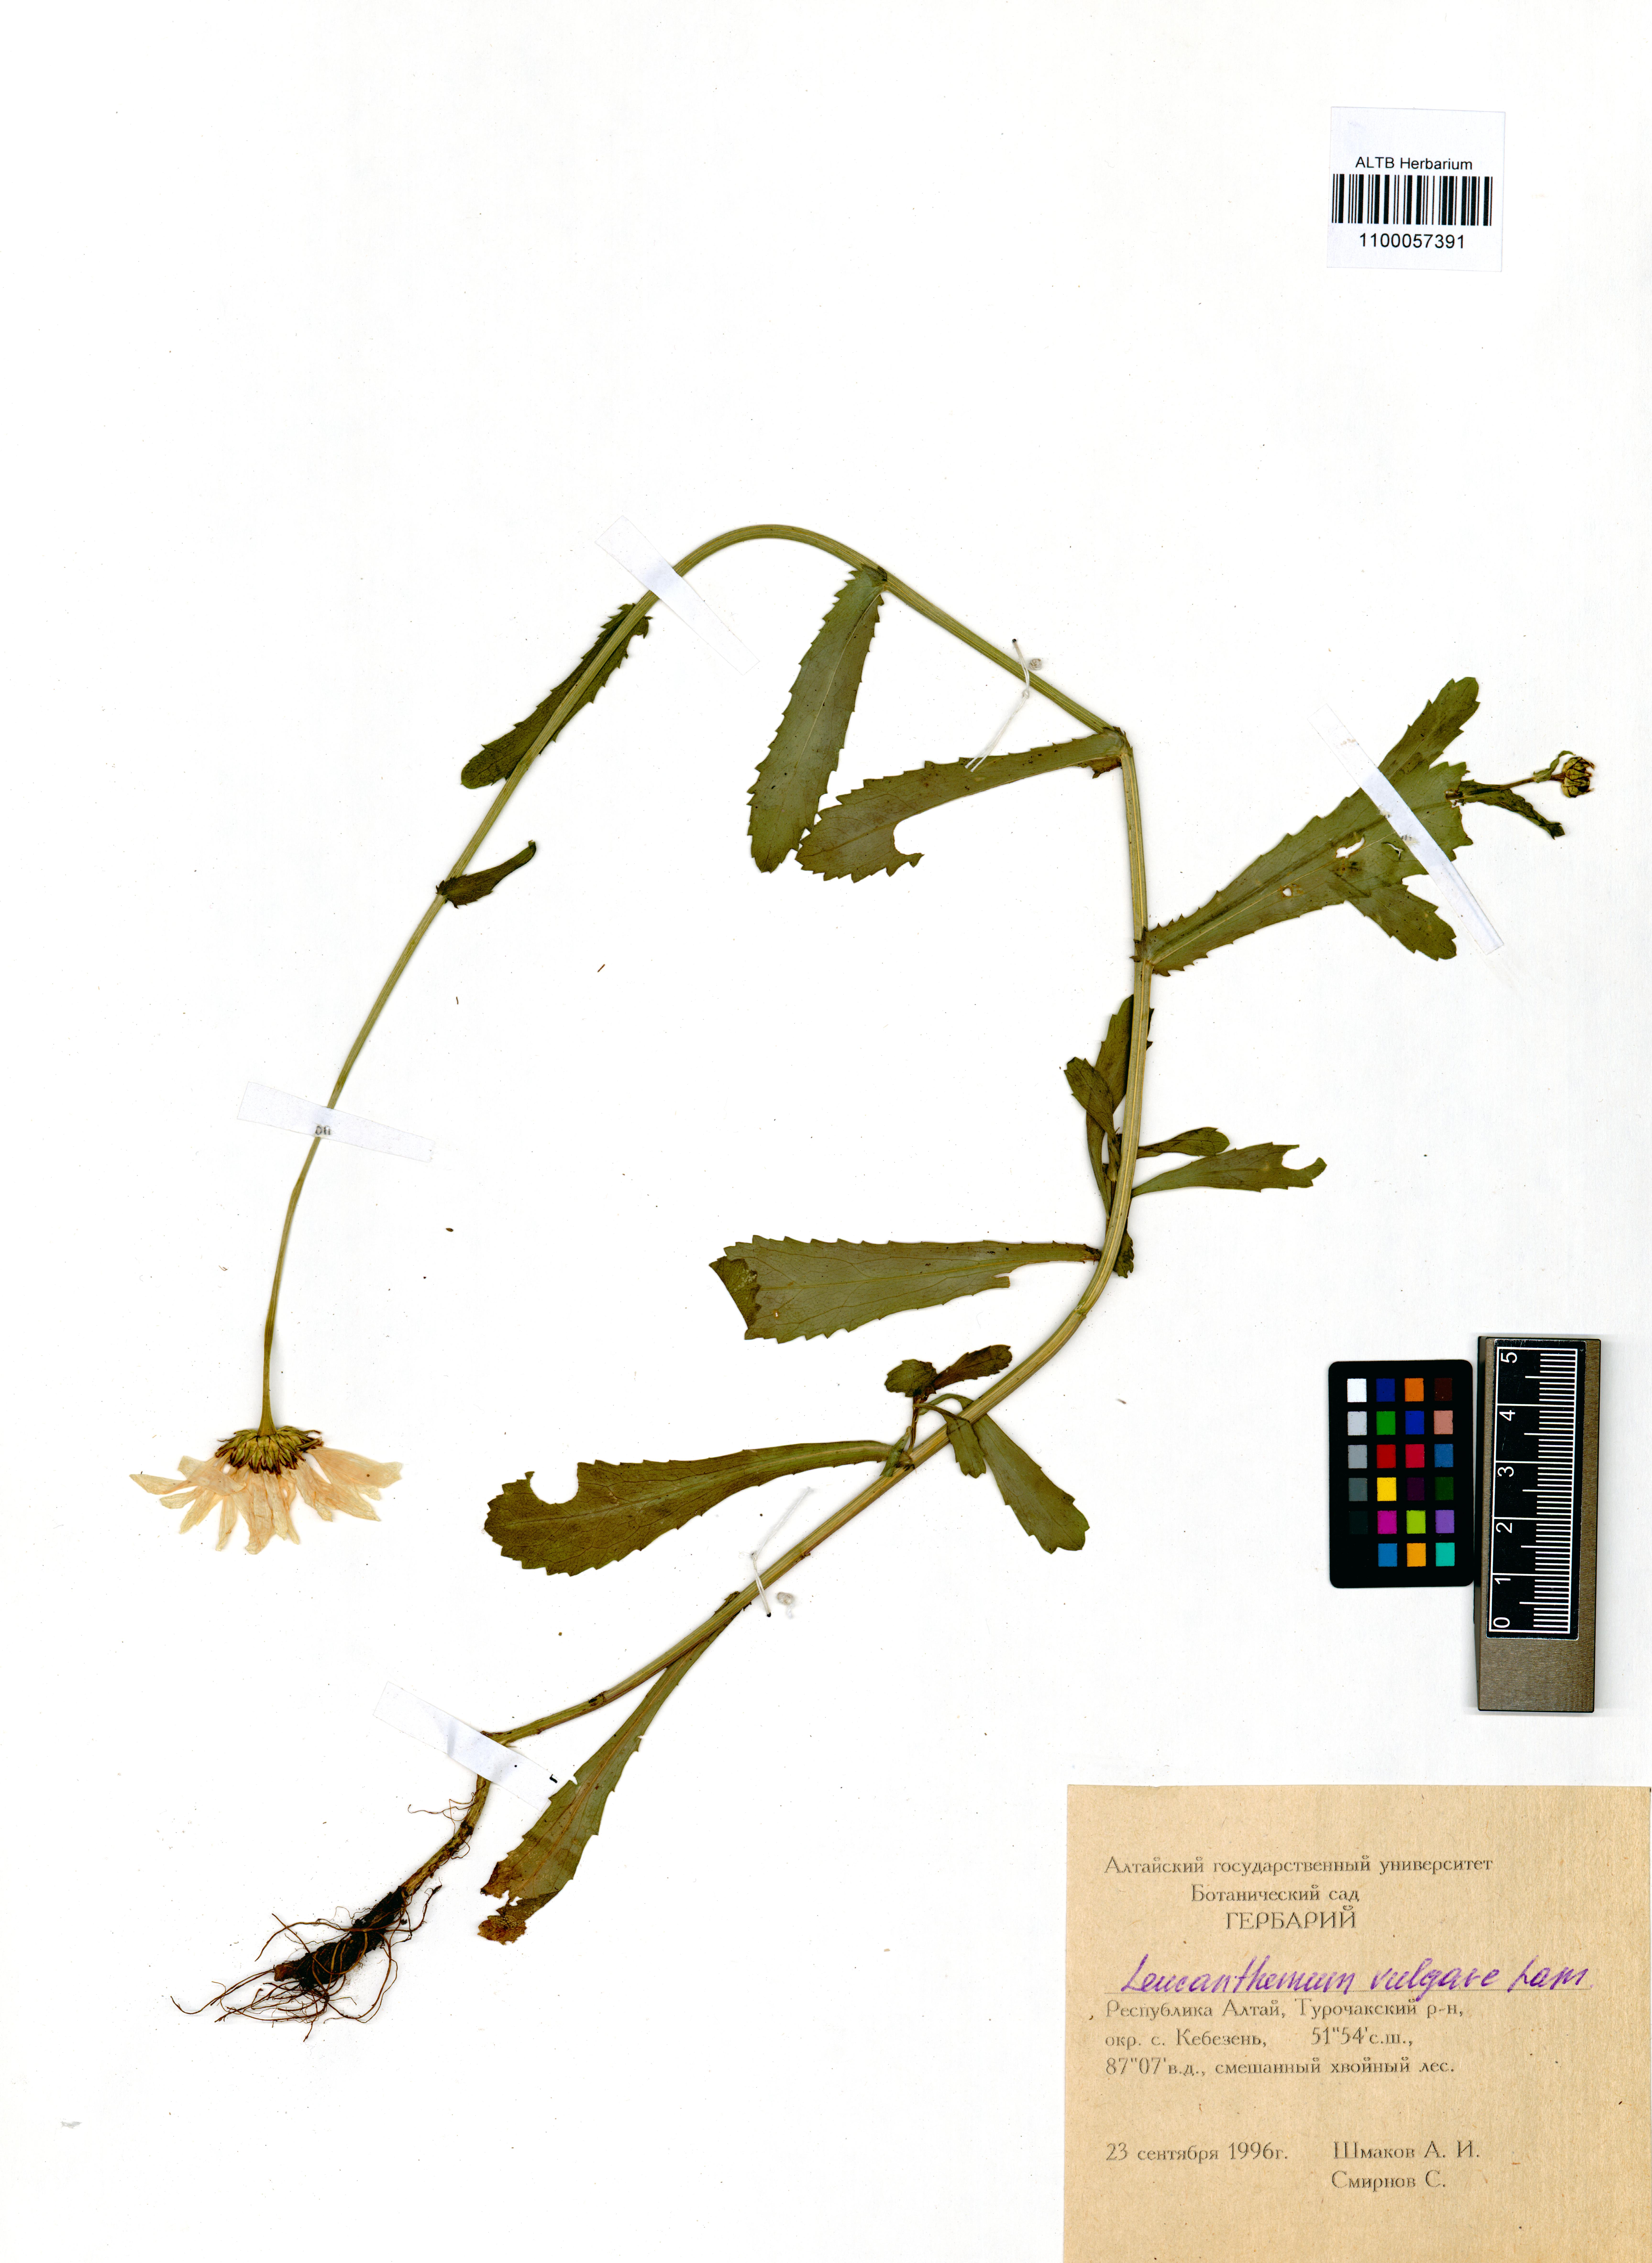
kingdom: Plantae
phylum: Tracheophyta
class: Magnoliopsida
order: Asterales
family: Asteraceae
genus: Leucanthemum
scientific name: Leucanthemum vulgare
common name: Oxeye daisy
